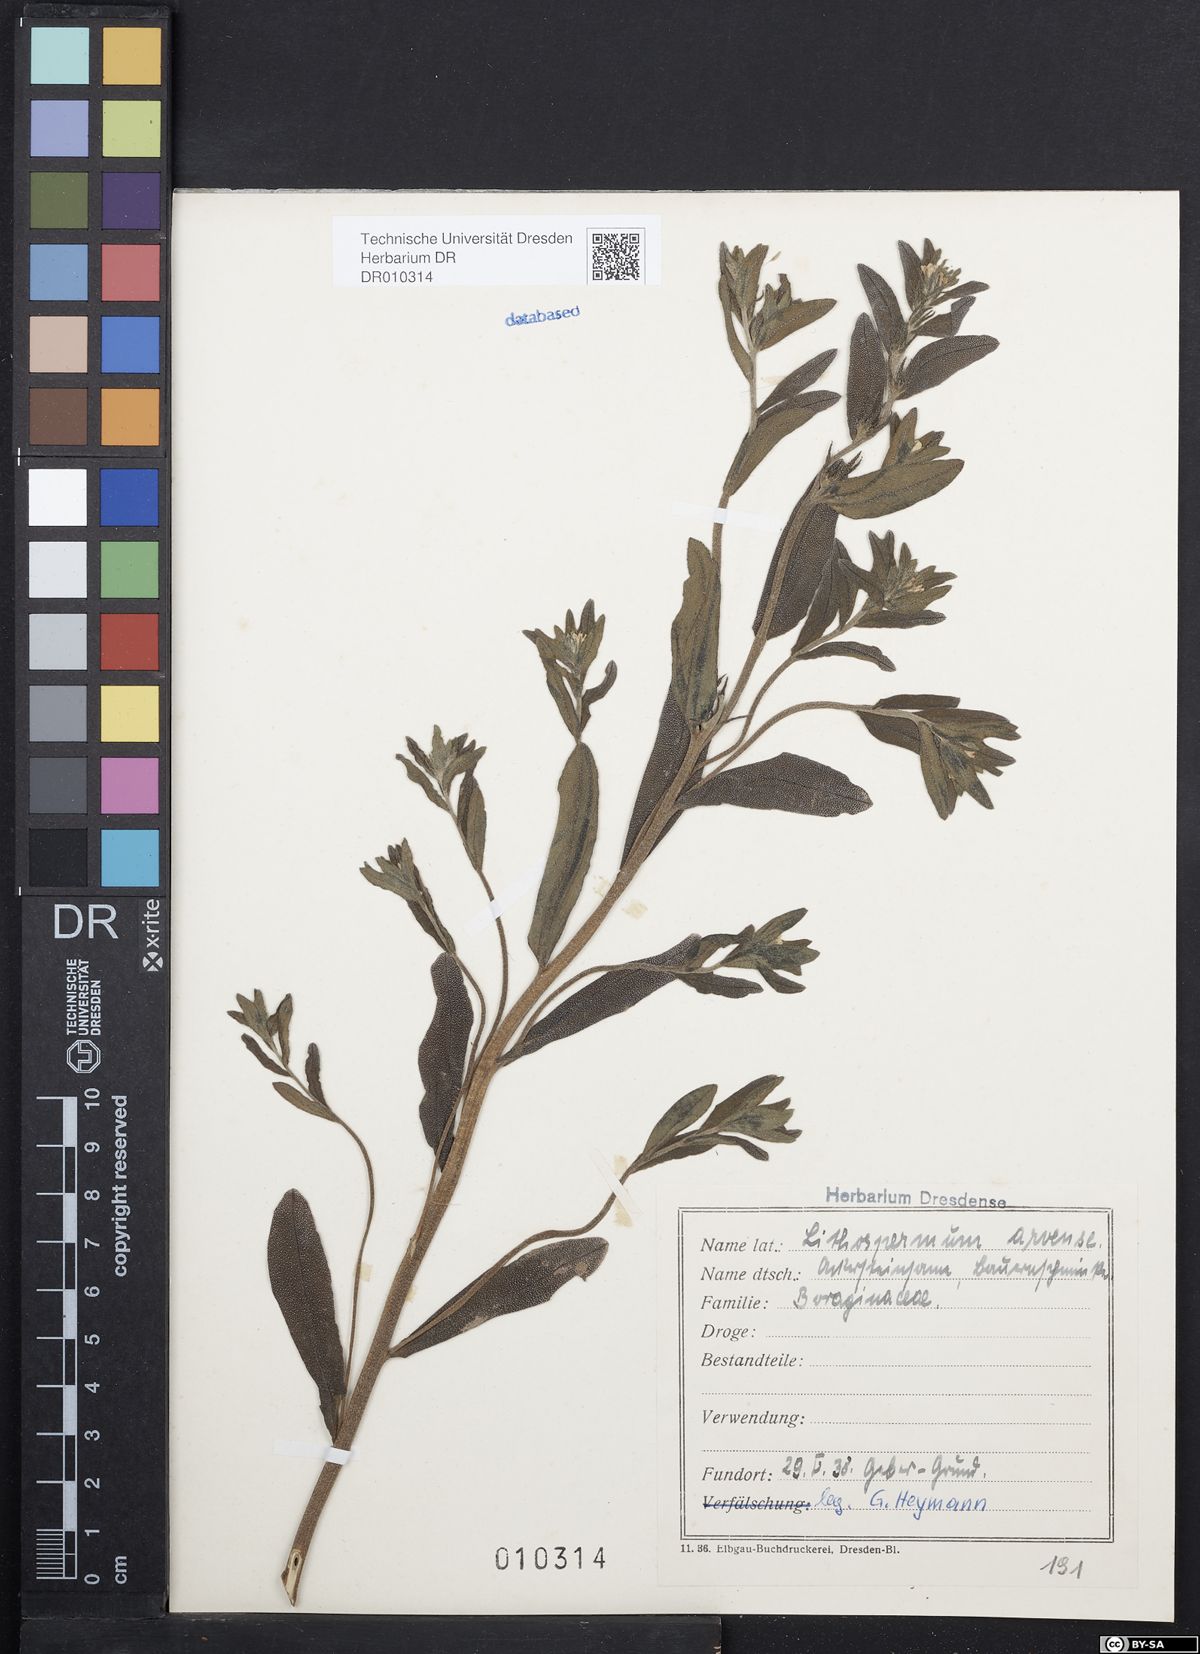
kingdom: Plantae
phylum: Tracheophyta
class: Magnoliopsida
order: Boraginales
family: Boraginaceae
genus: Buglossoides
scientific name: Buglossoides arvensis
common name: Corn gromwell
